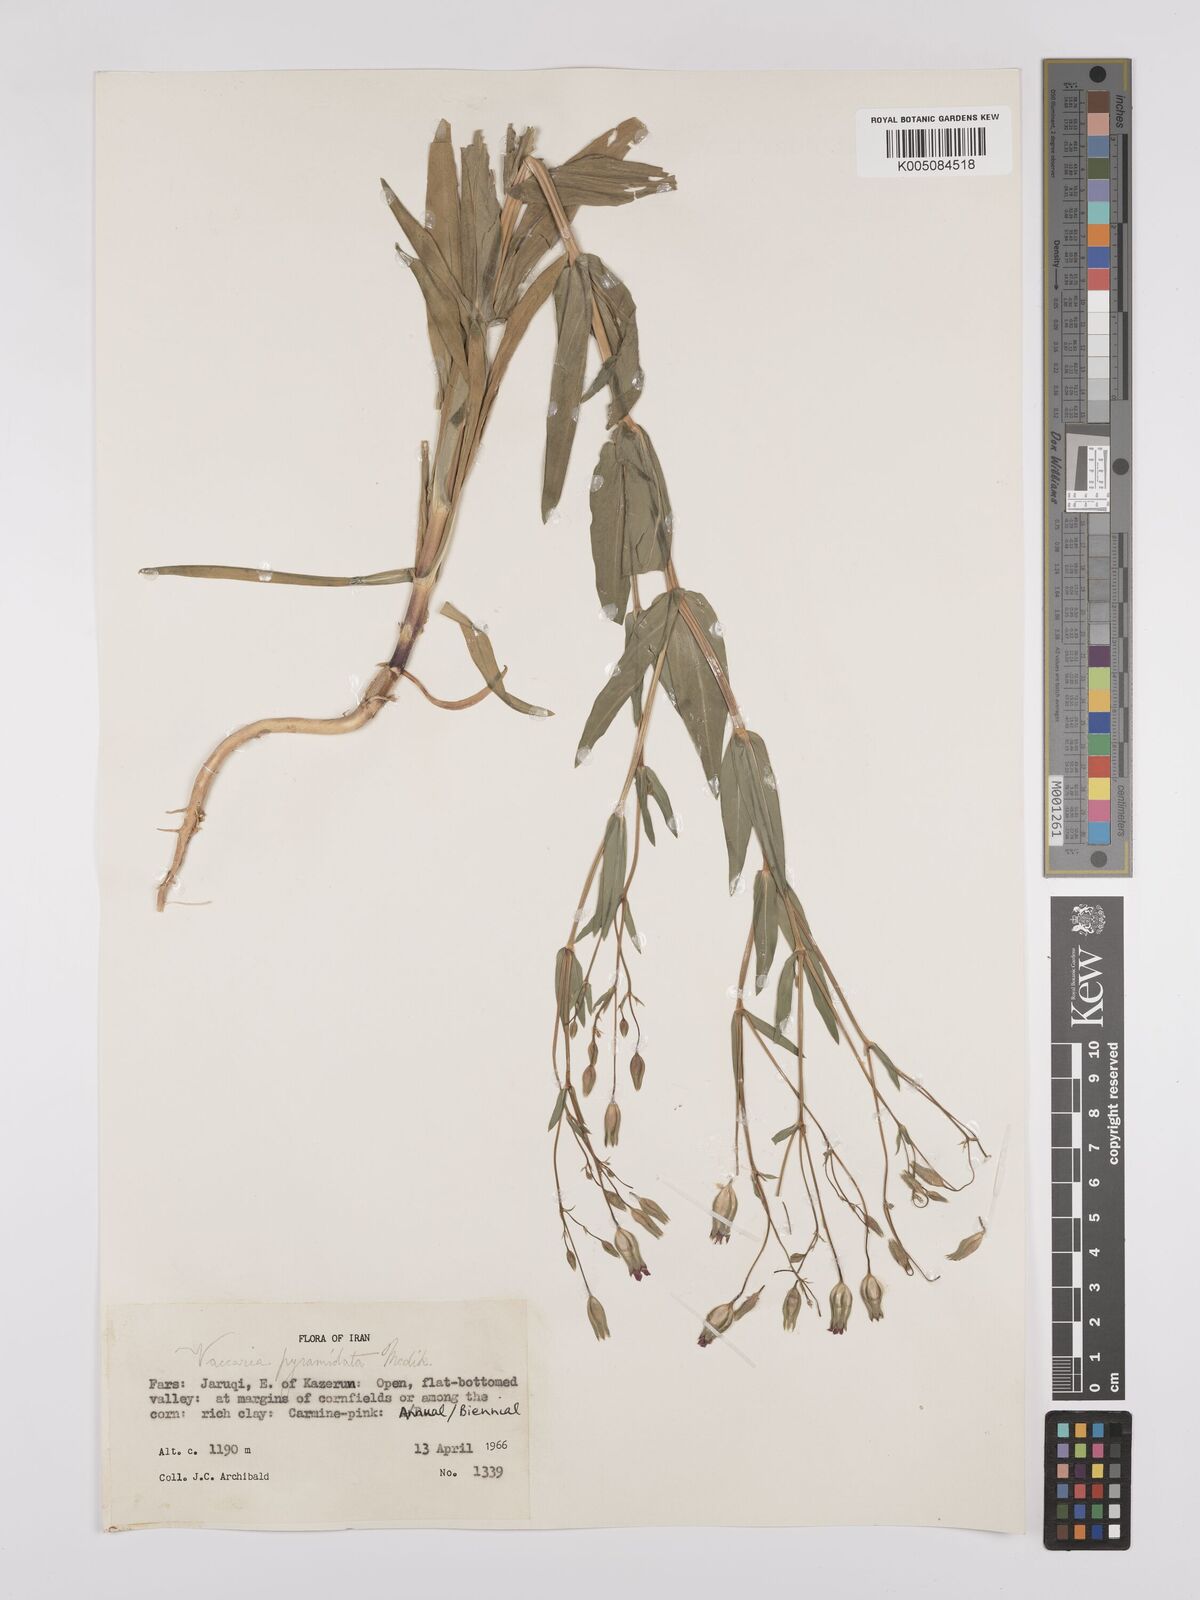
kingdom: Plantae
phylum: Tracheophyta
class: Magnoliopsida
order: Caryophyllales
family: Caryophyllaceae
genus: Gypsophila
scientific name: Gypsophila vaccaria
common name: Cow soapwort
